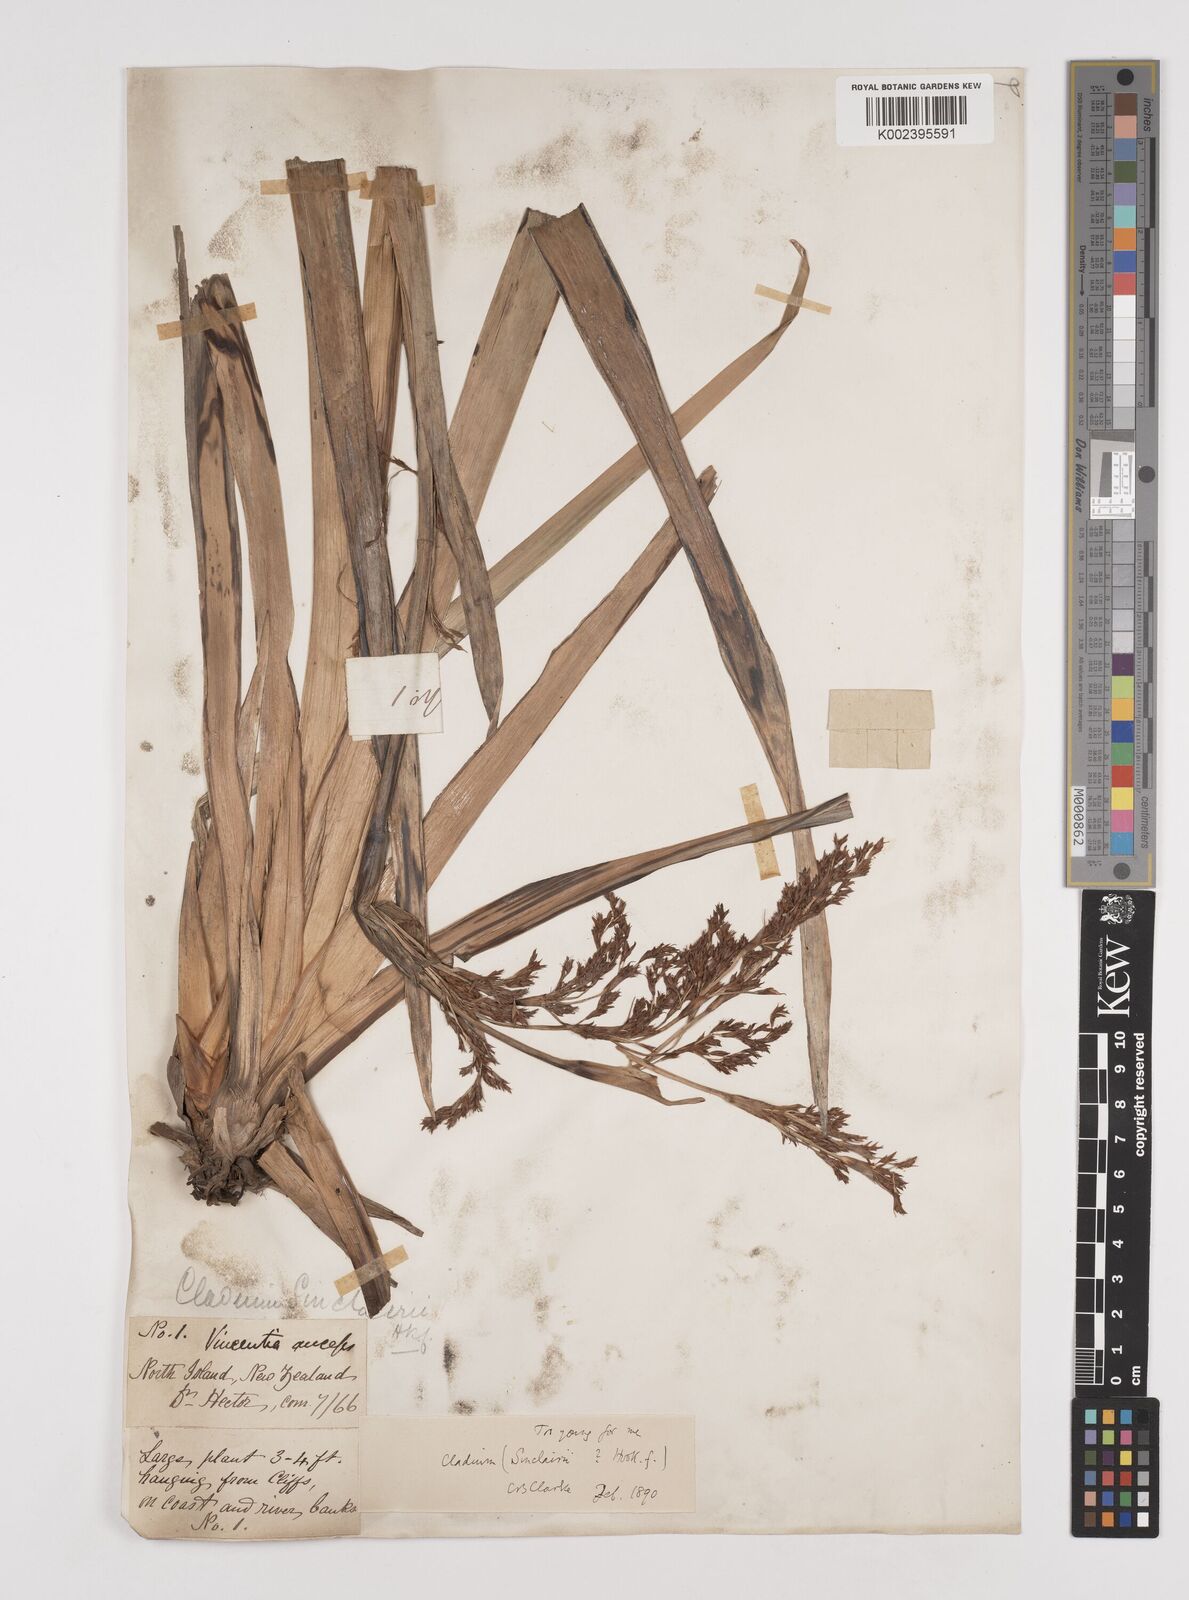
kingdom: Plantae
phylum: Tracheophyta
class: Liliopsida
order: Poales
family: Cyperaceae
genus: Machaerina
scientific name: Machaerina sinclairii
